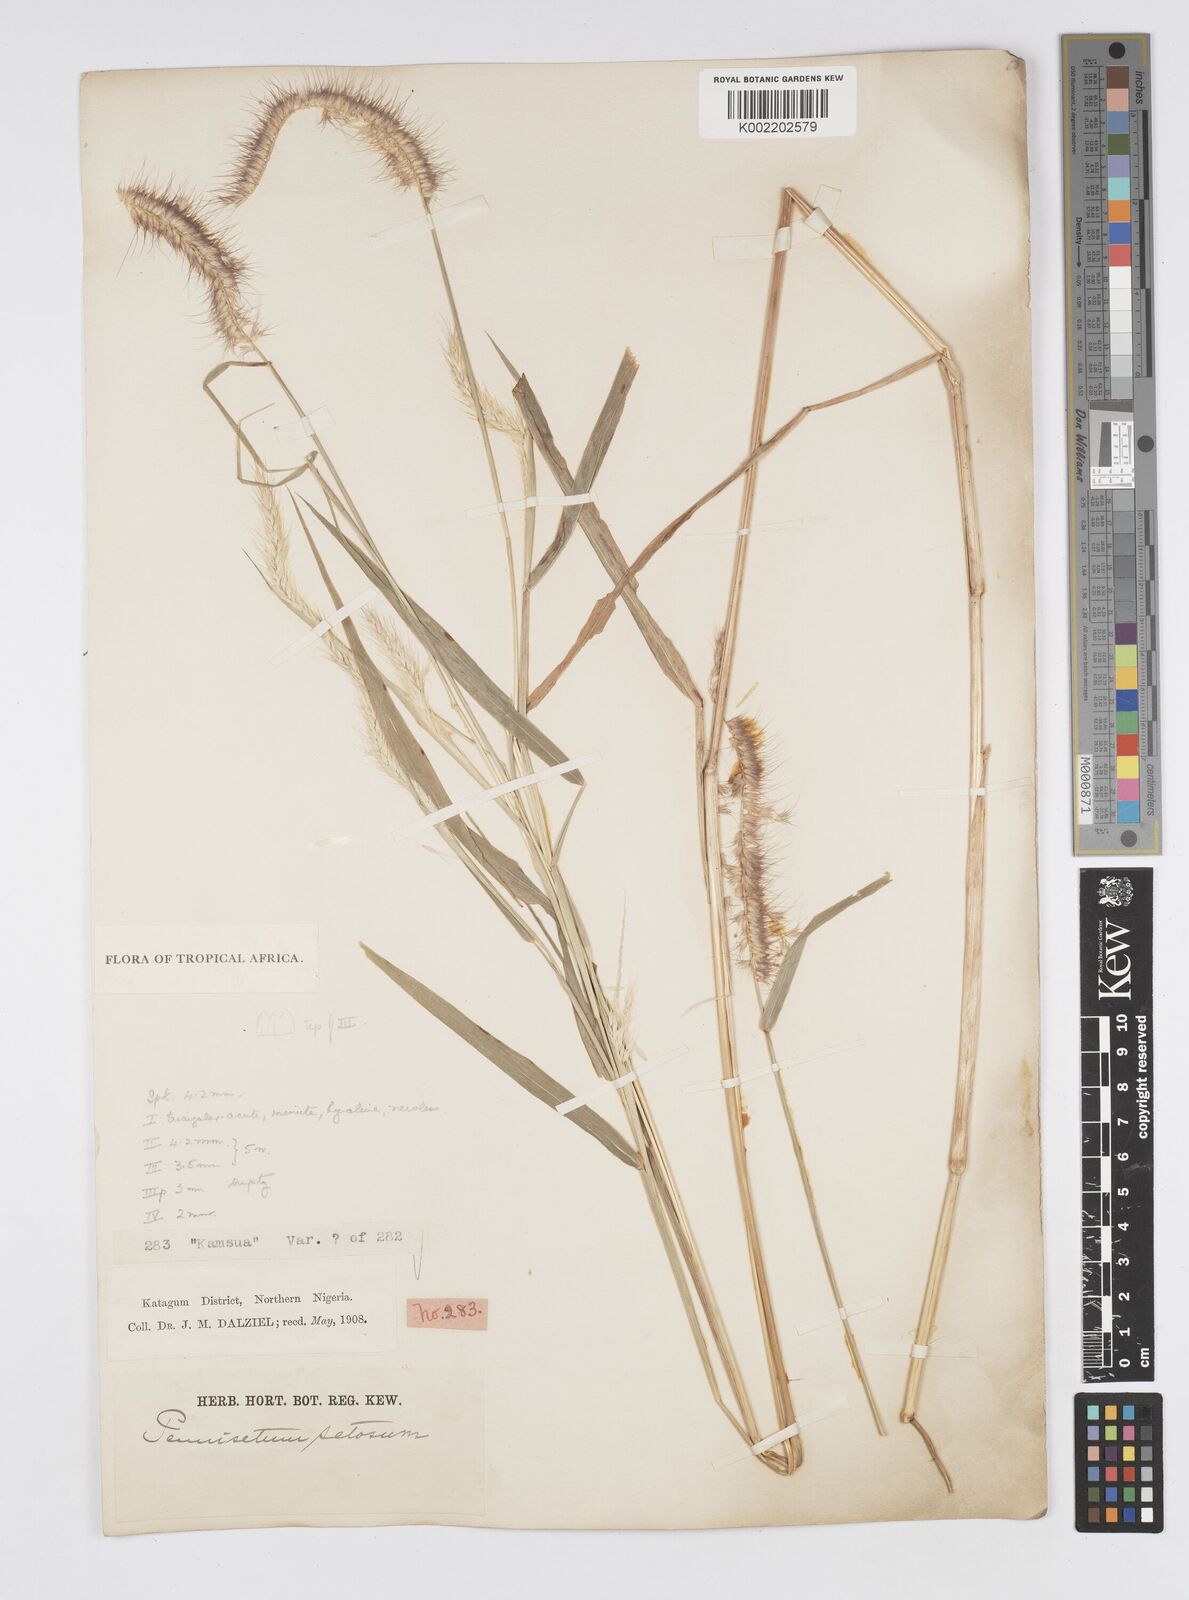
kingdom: Plantae
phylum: Tracheophyta
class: Liliopsida
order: Poales
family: Poaceae
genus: Setaria
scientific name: Setaria parviflora
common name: Knotroot bristle-grass
